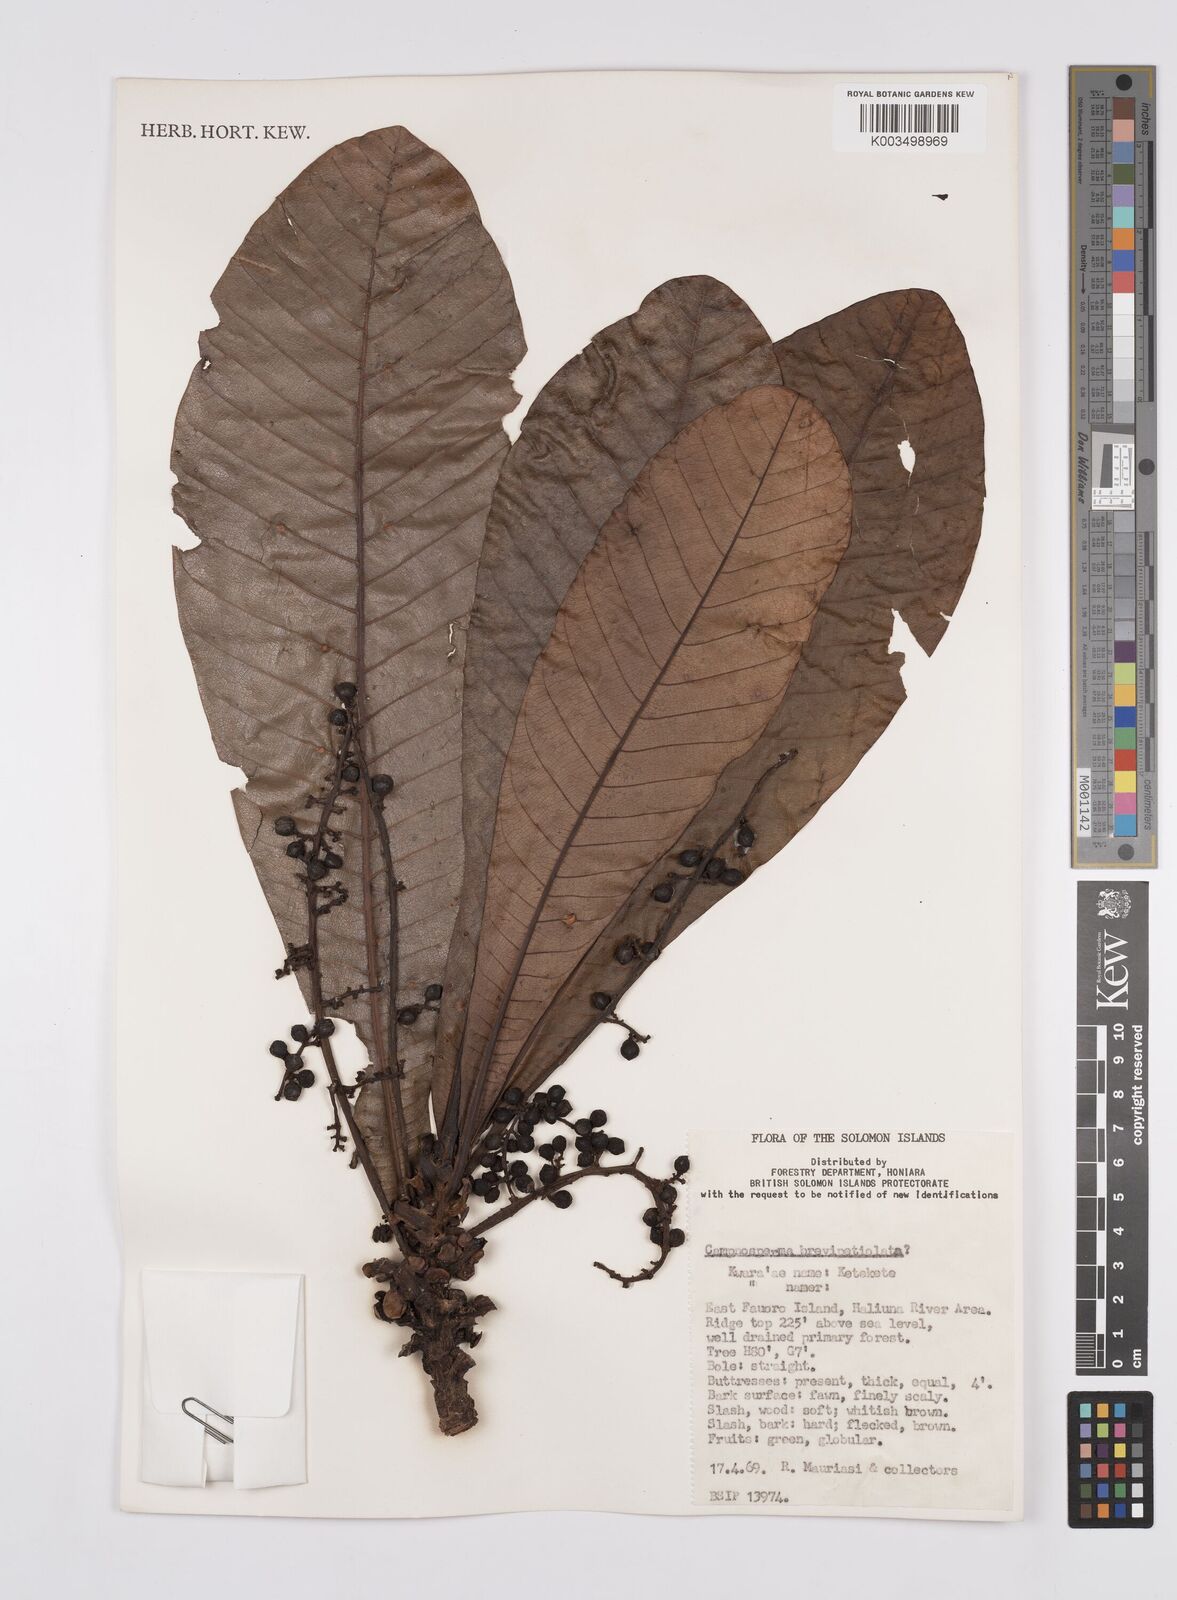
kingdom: Plantae
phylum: Tracheophyta
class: Magnoliopsida
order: Sapindales
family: Anacardiaceae
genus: Campnosperma
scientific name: Campnosperma brevipetiolatum
